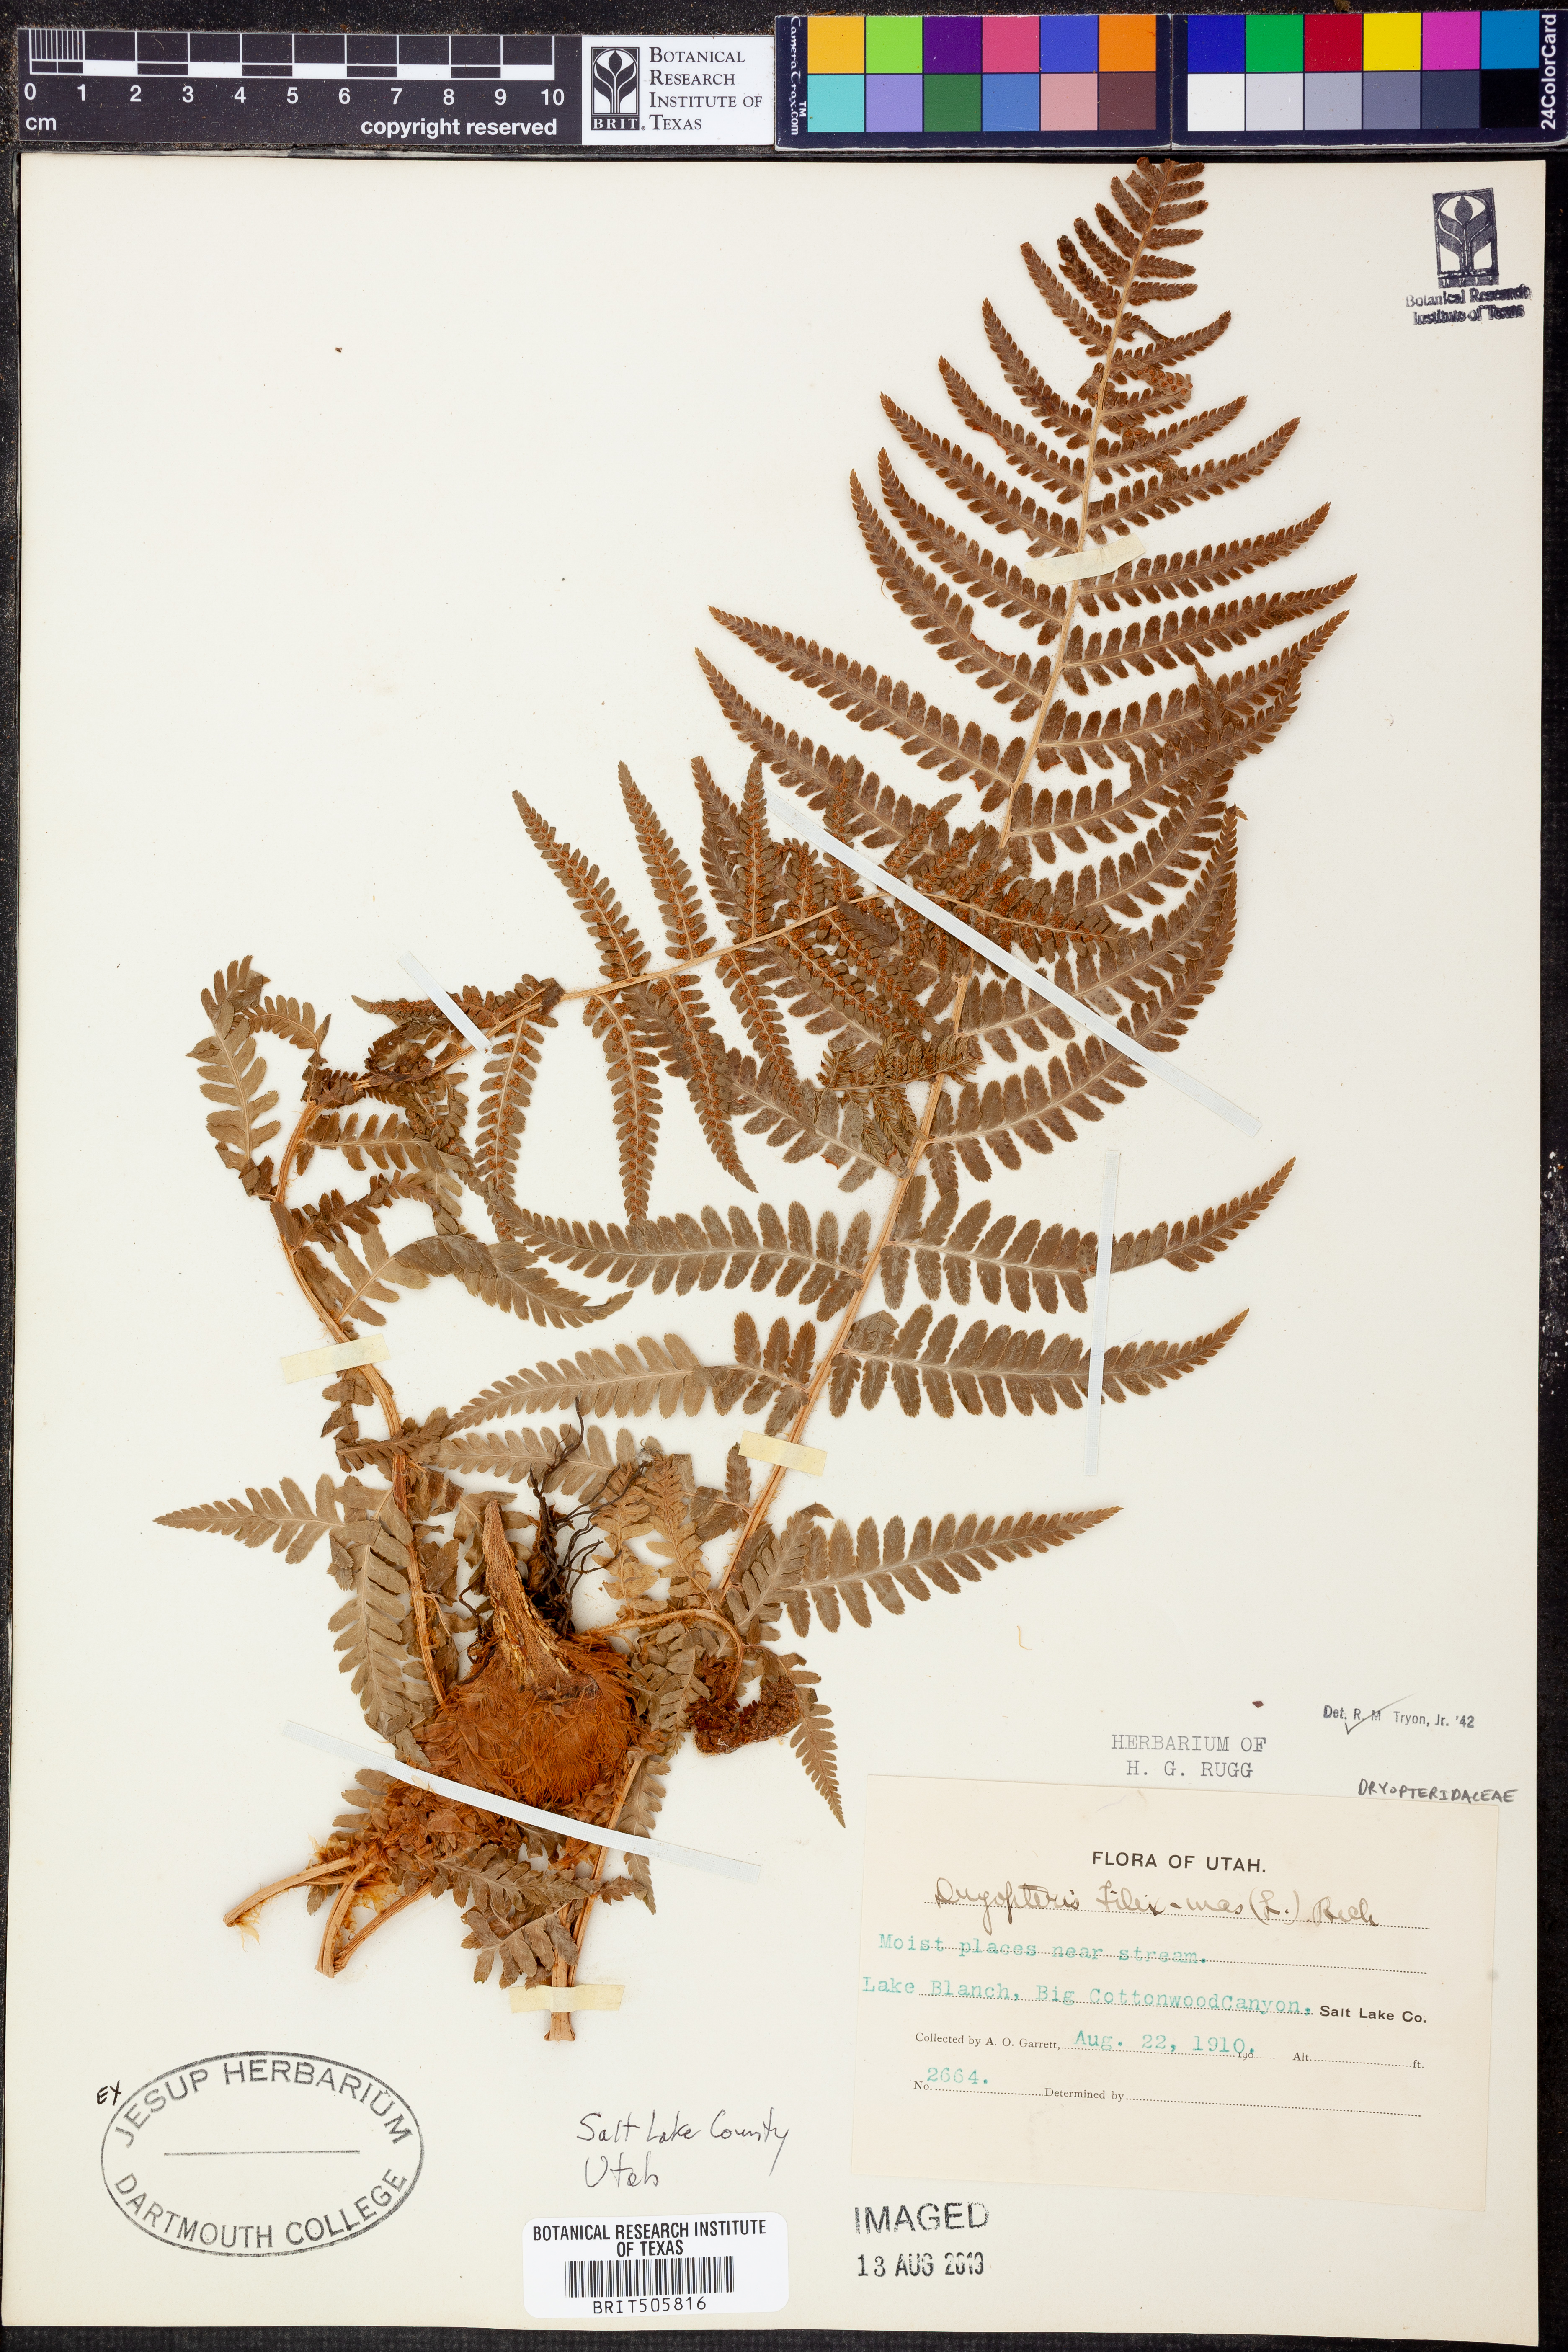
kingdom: Plantae
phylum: Tracheophyta
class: Polypodiopsida
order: Polypodiales
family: Dryopteridaceae
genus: Dryopteris
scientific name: Dryopteris filix-mas
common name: Male fern
